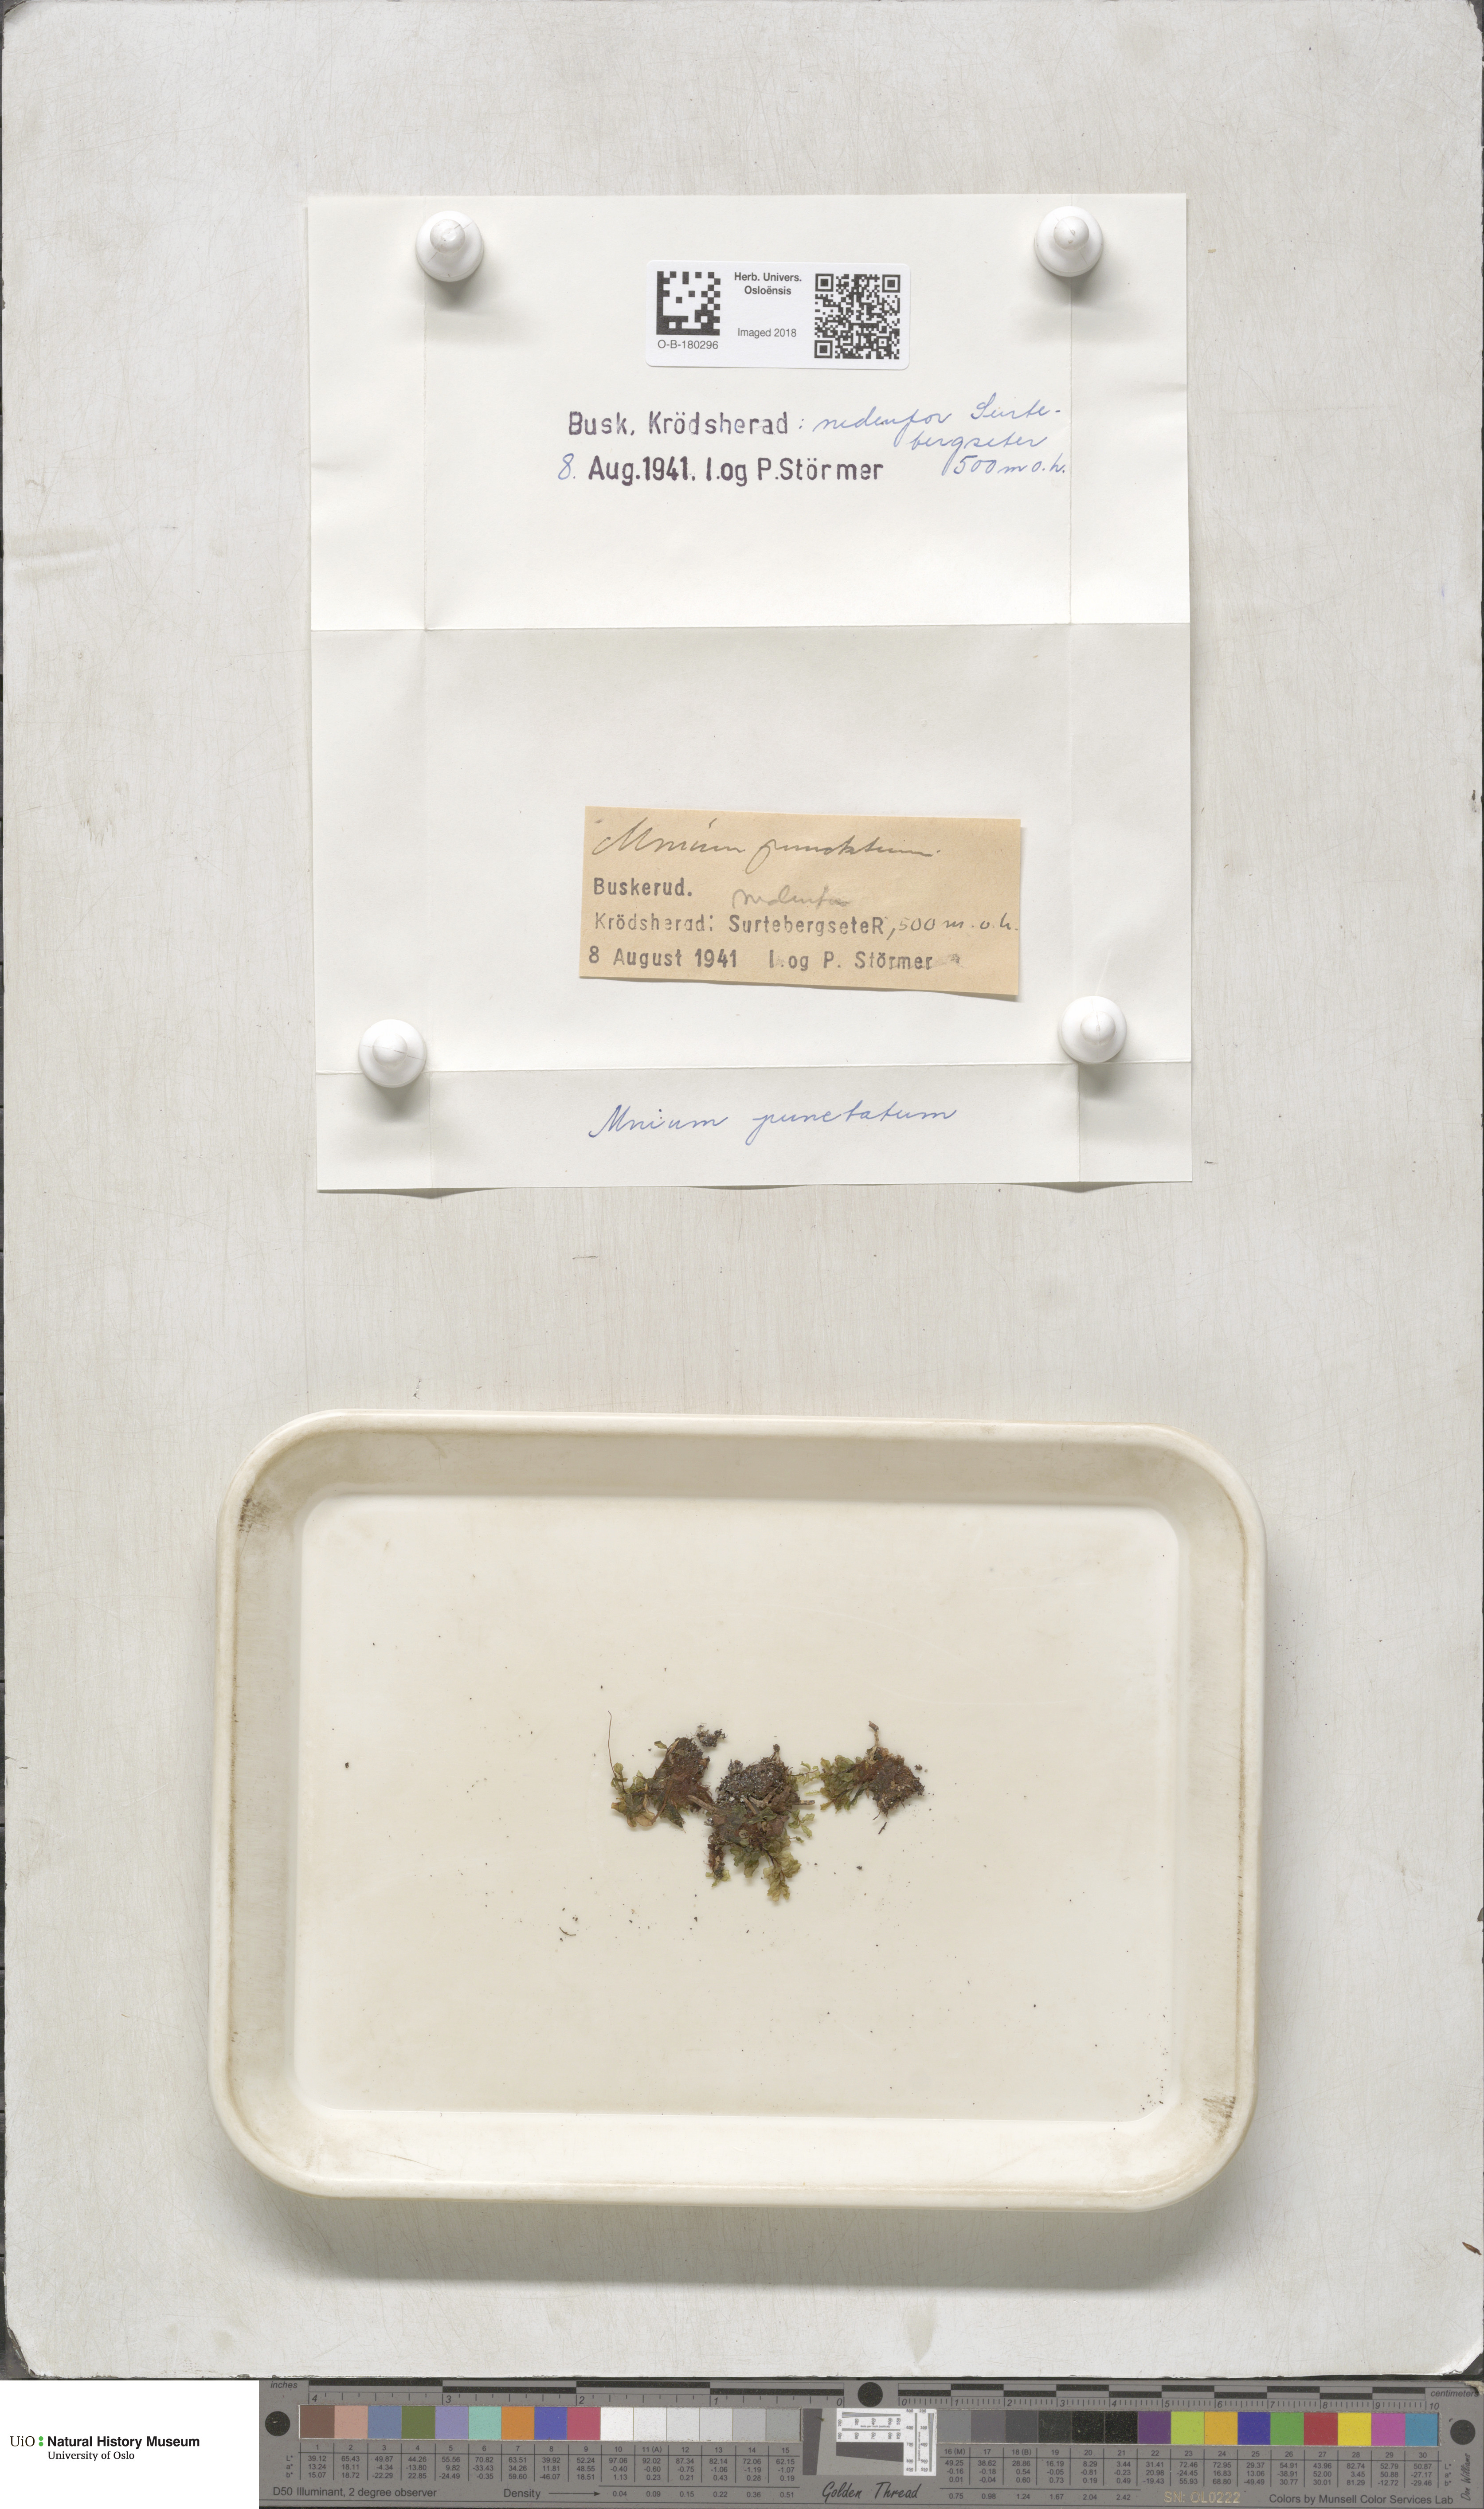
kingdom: Plantae
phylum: Bryophyta
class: Bryopsida
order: Bryales
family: Mniaceae
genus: Rhizomnium
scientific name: Rhizomnium punctatum
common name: Dotted leafy moss
